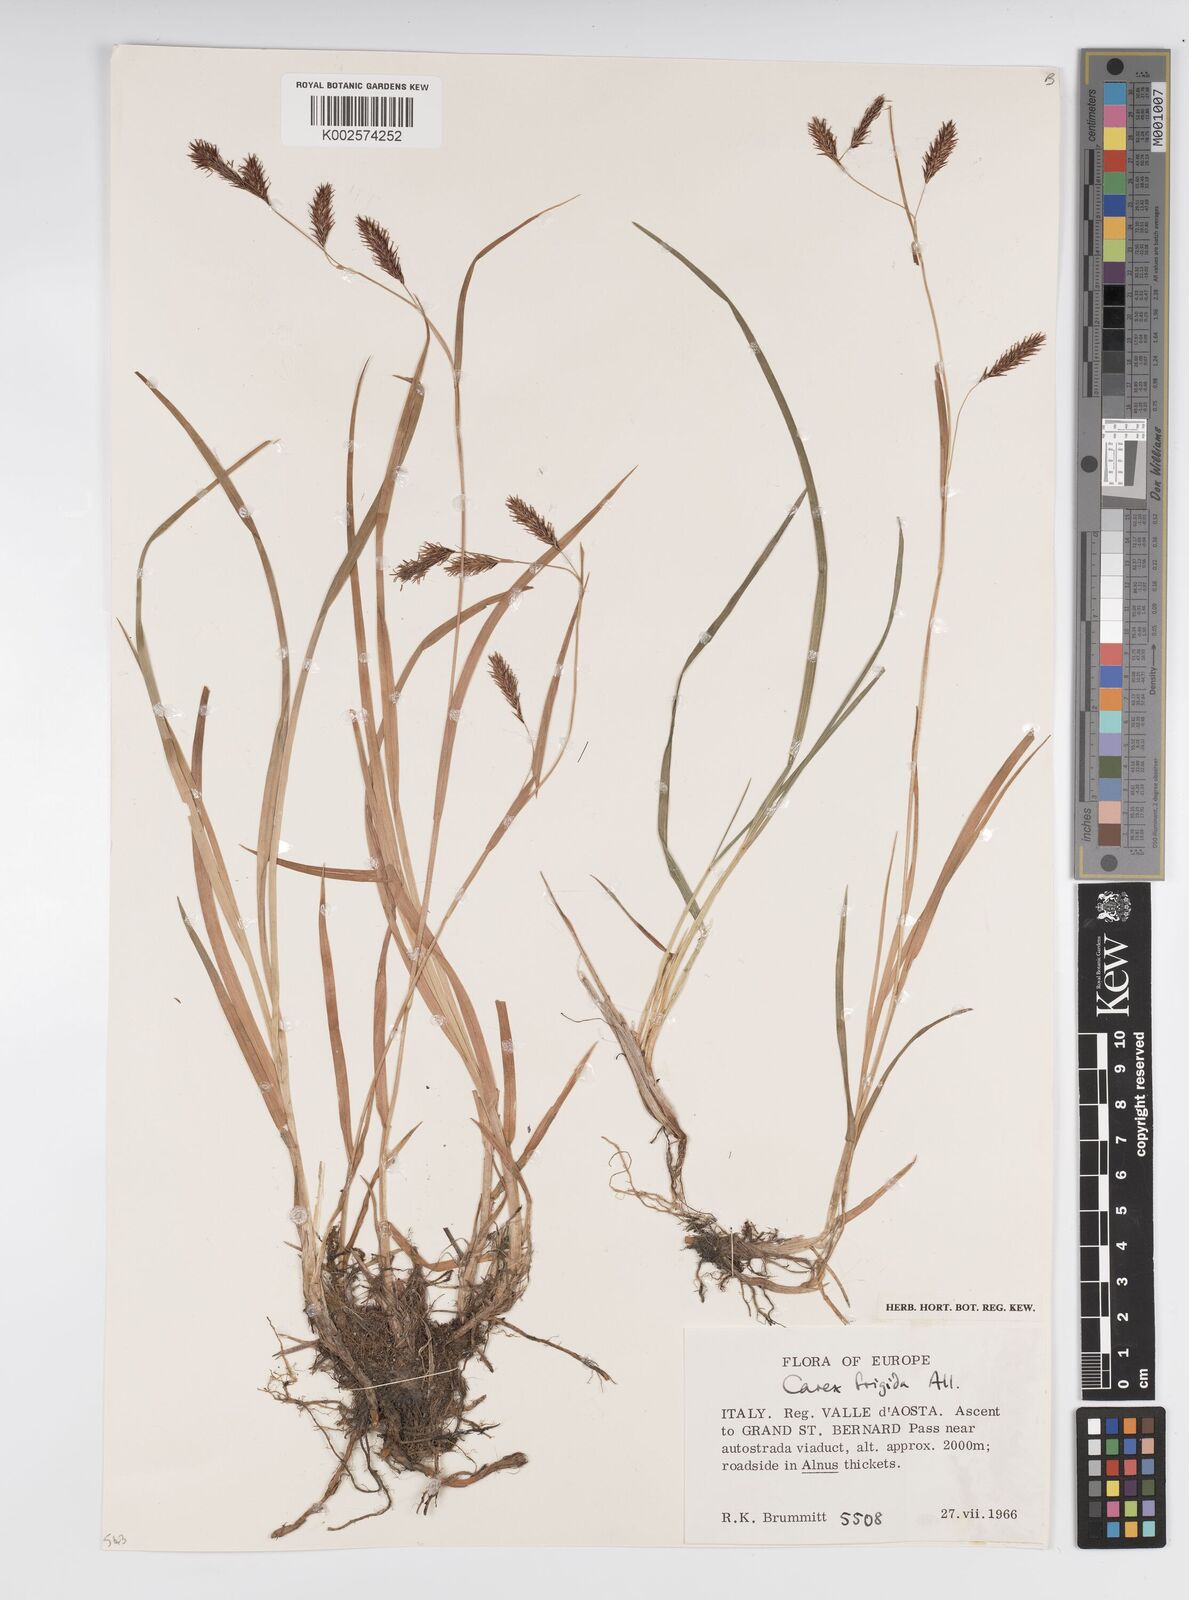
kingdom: Plantae
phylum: Tracheophyta
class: Liliopsida
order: Poales
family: Cyperaceae
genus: Carex
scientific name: Carex frigida
